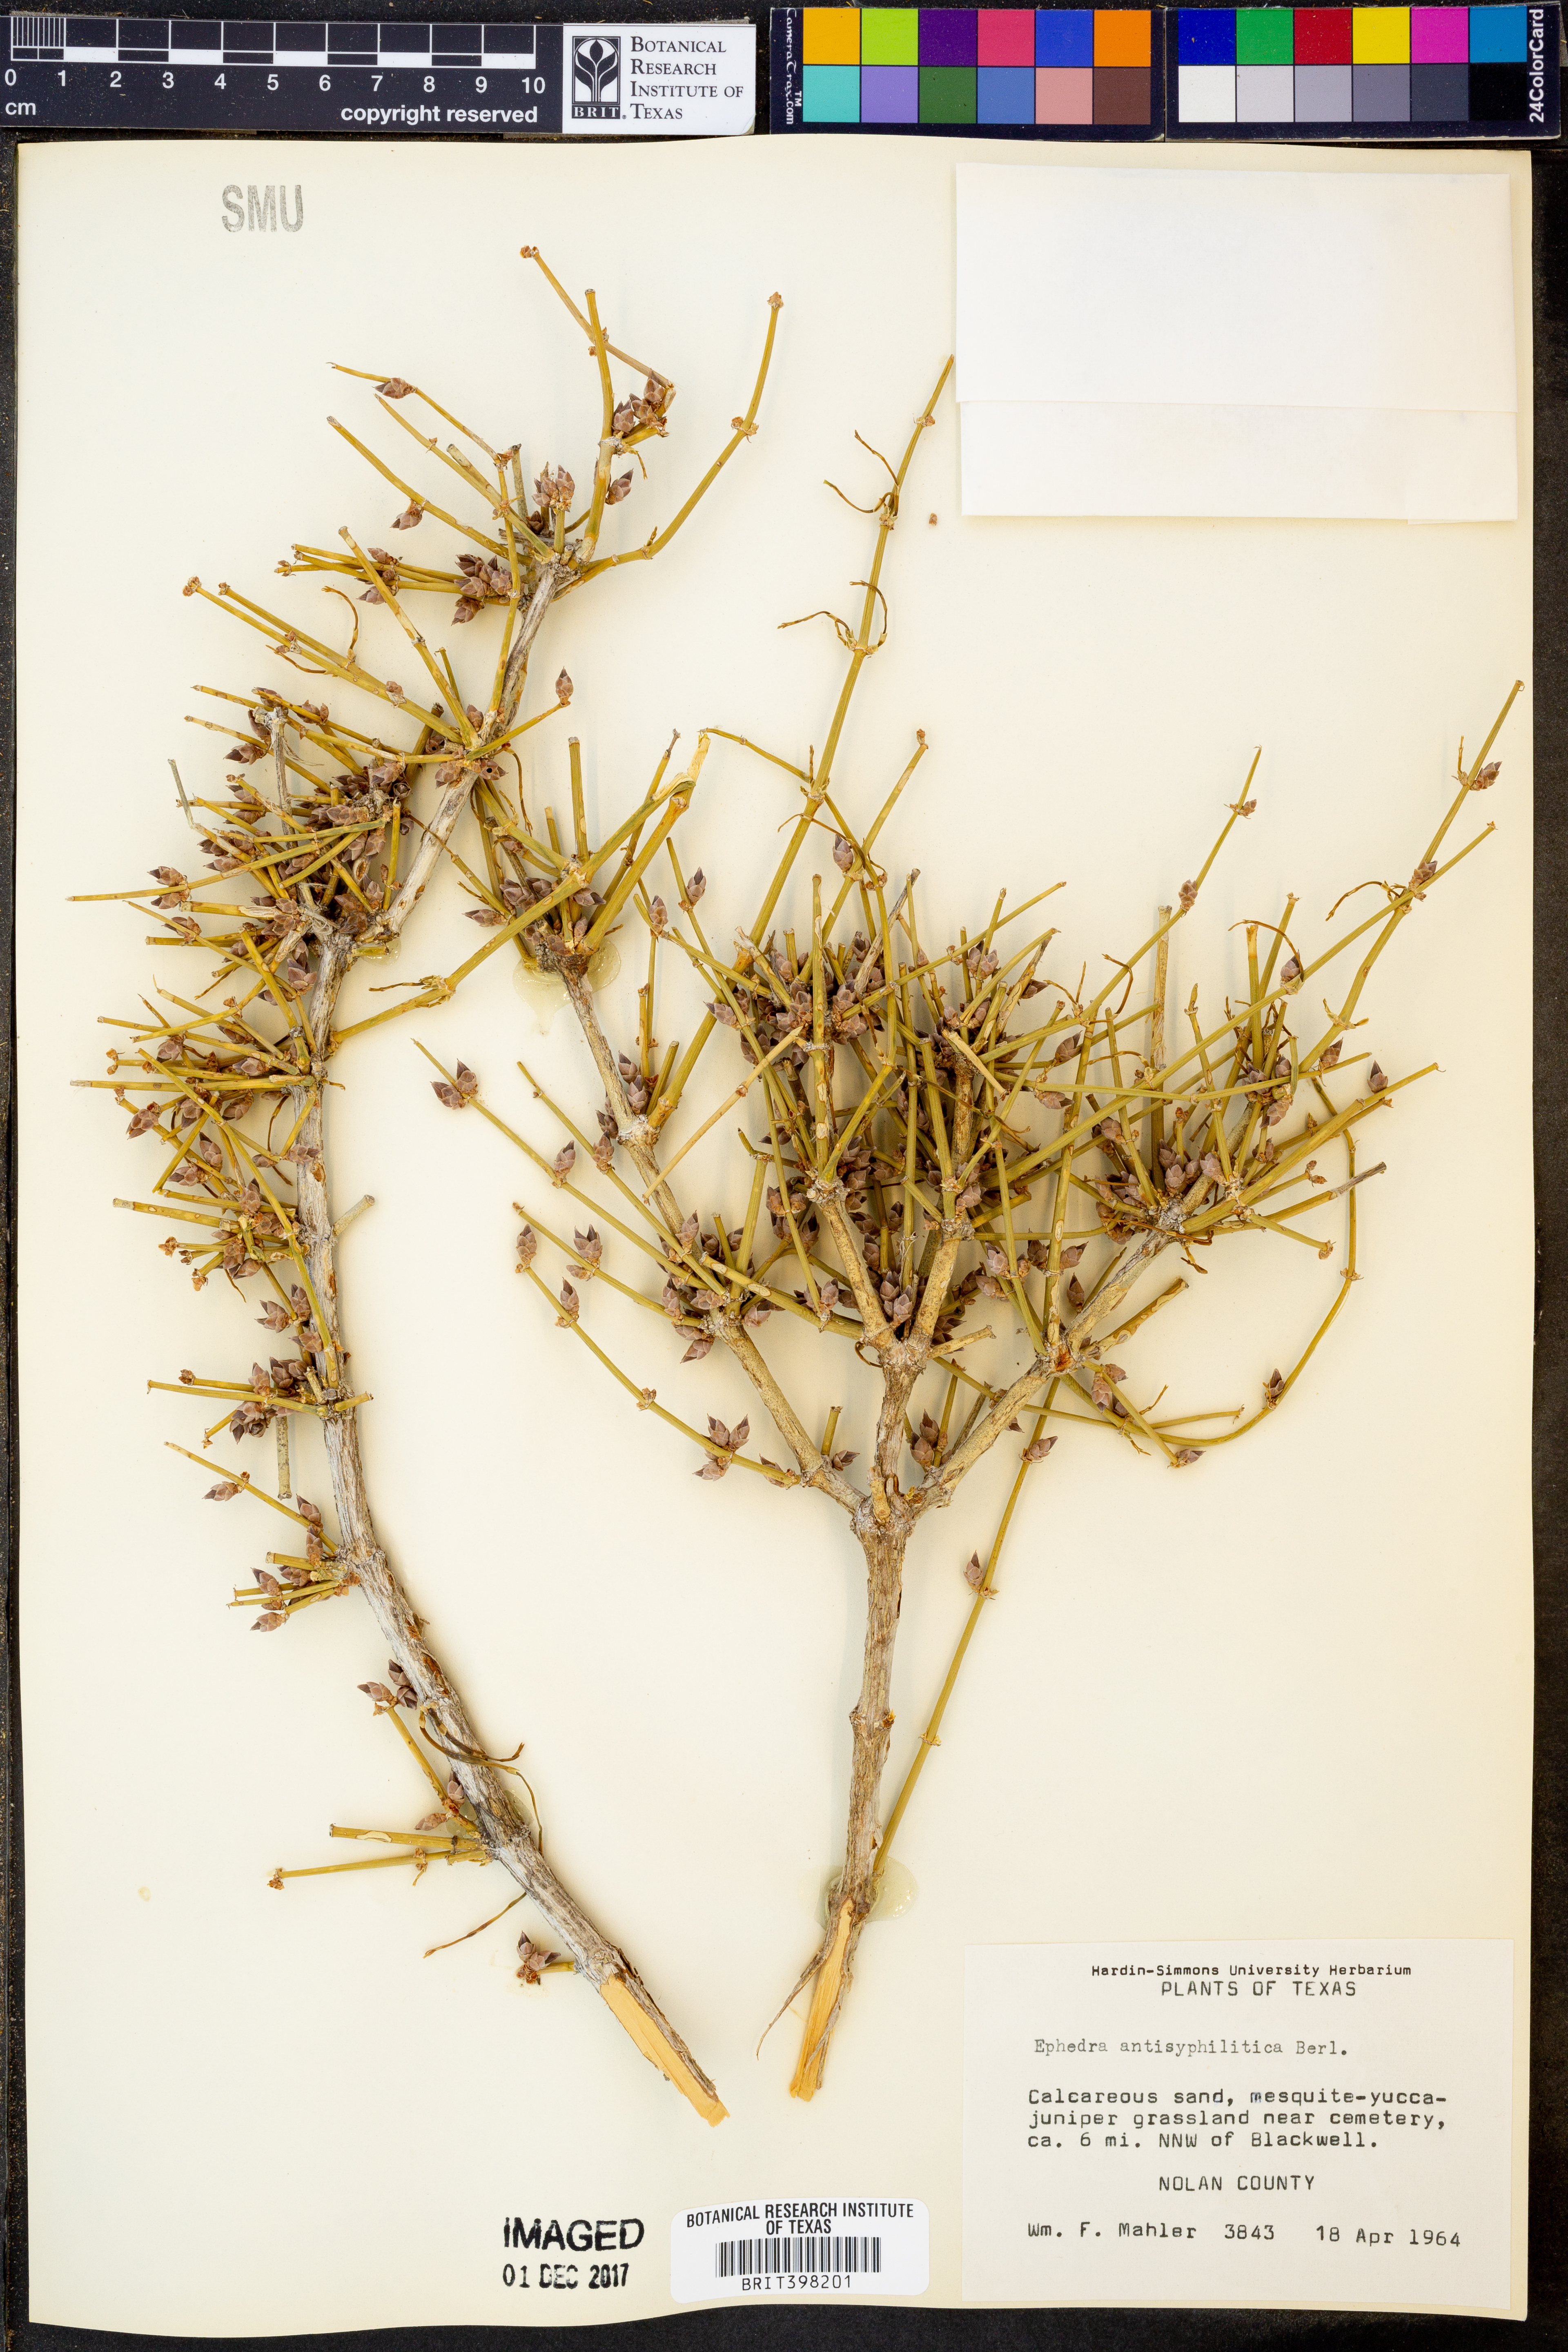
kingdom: Plantae
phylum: Tracheophyta
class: Gnetopsida
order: Ephedrales
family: Ephedraceae
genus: Ephedra
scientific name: Ephedra antisyphilitica
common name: Clipweed
